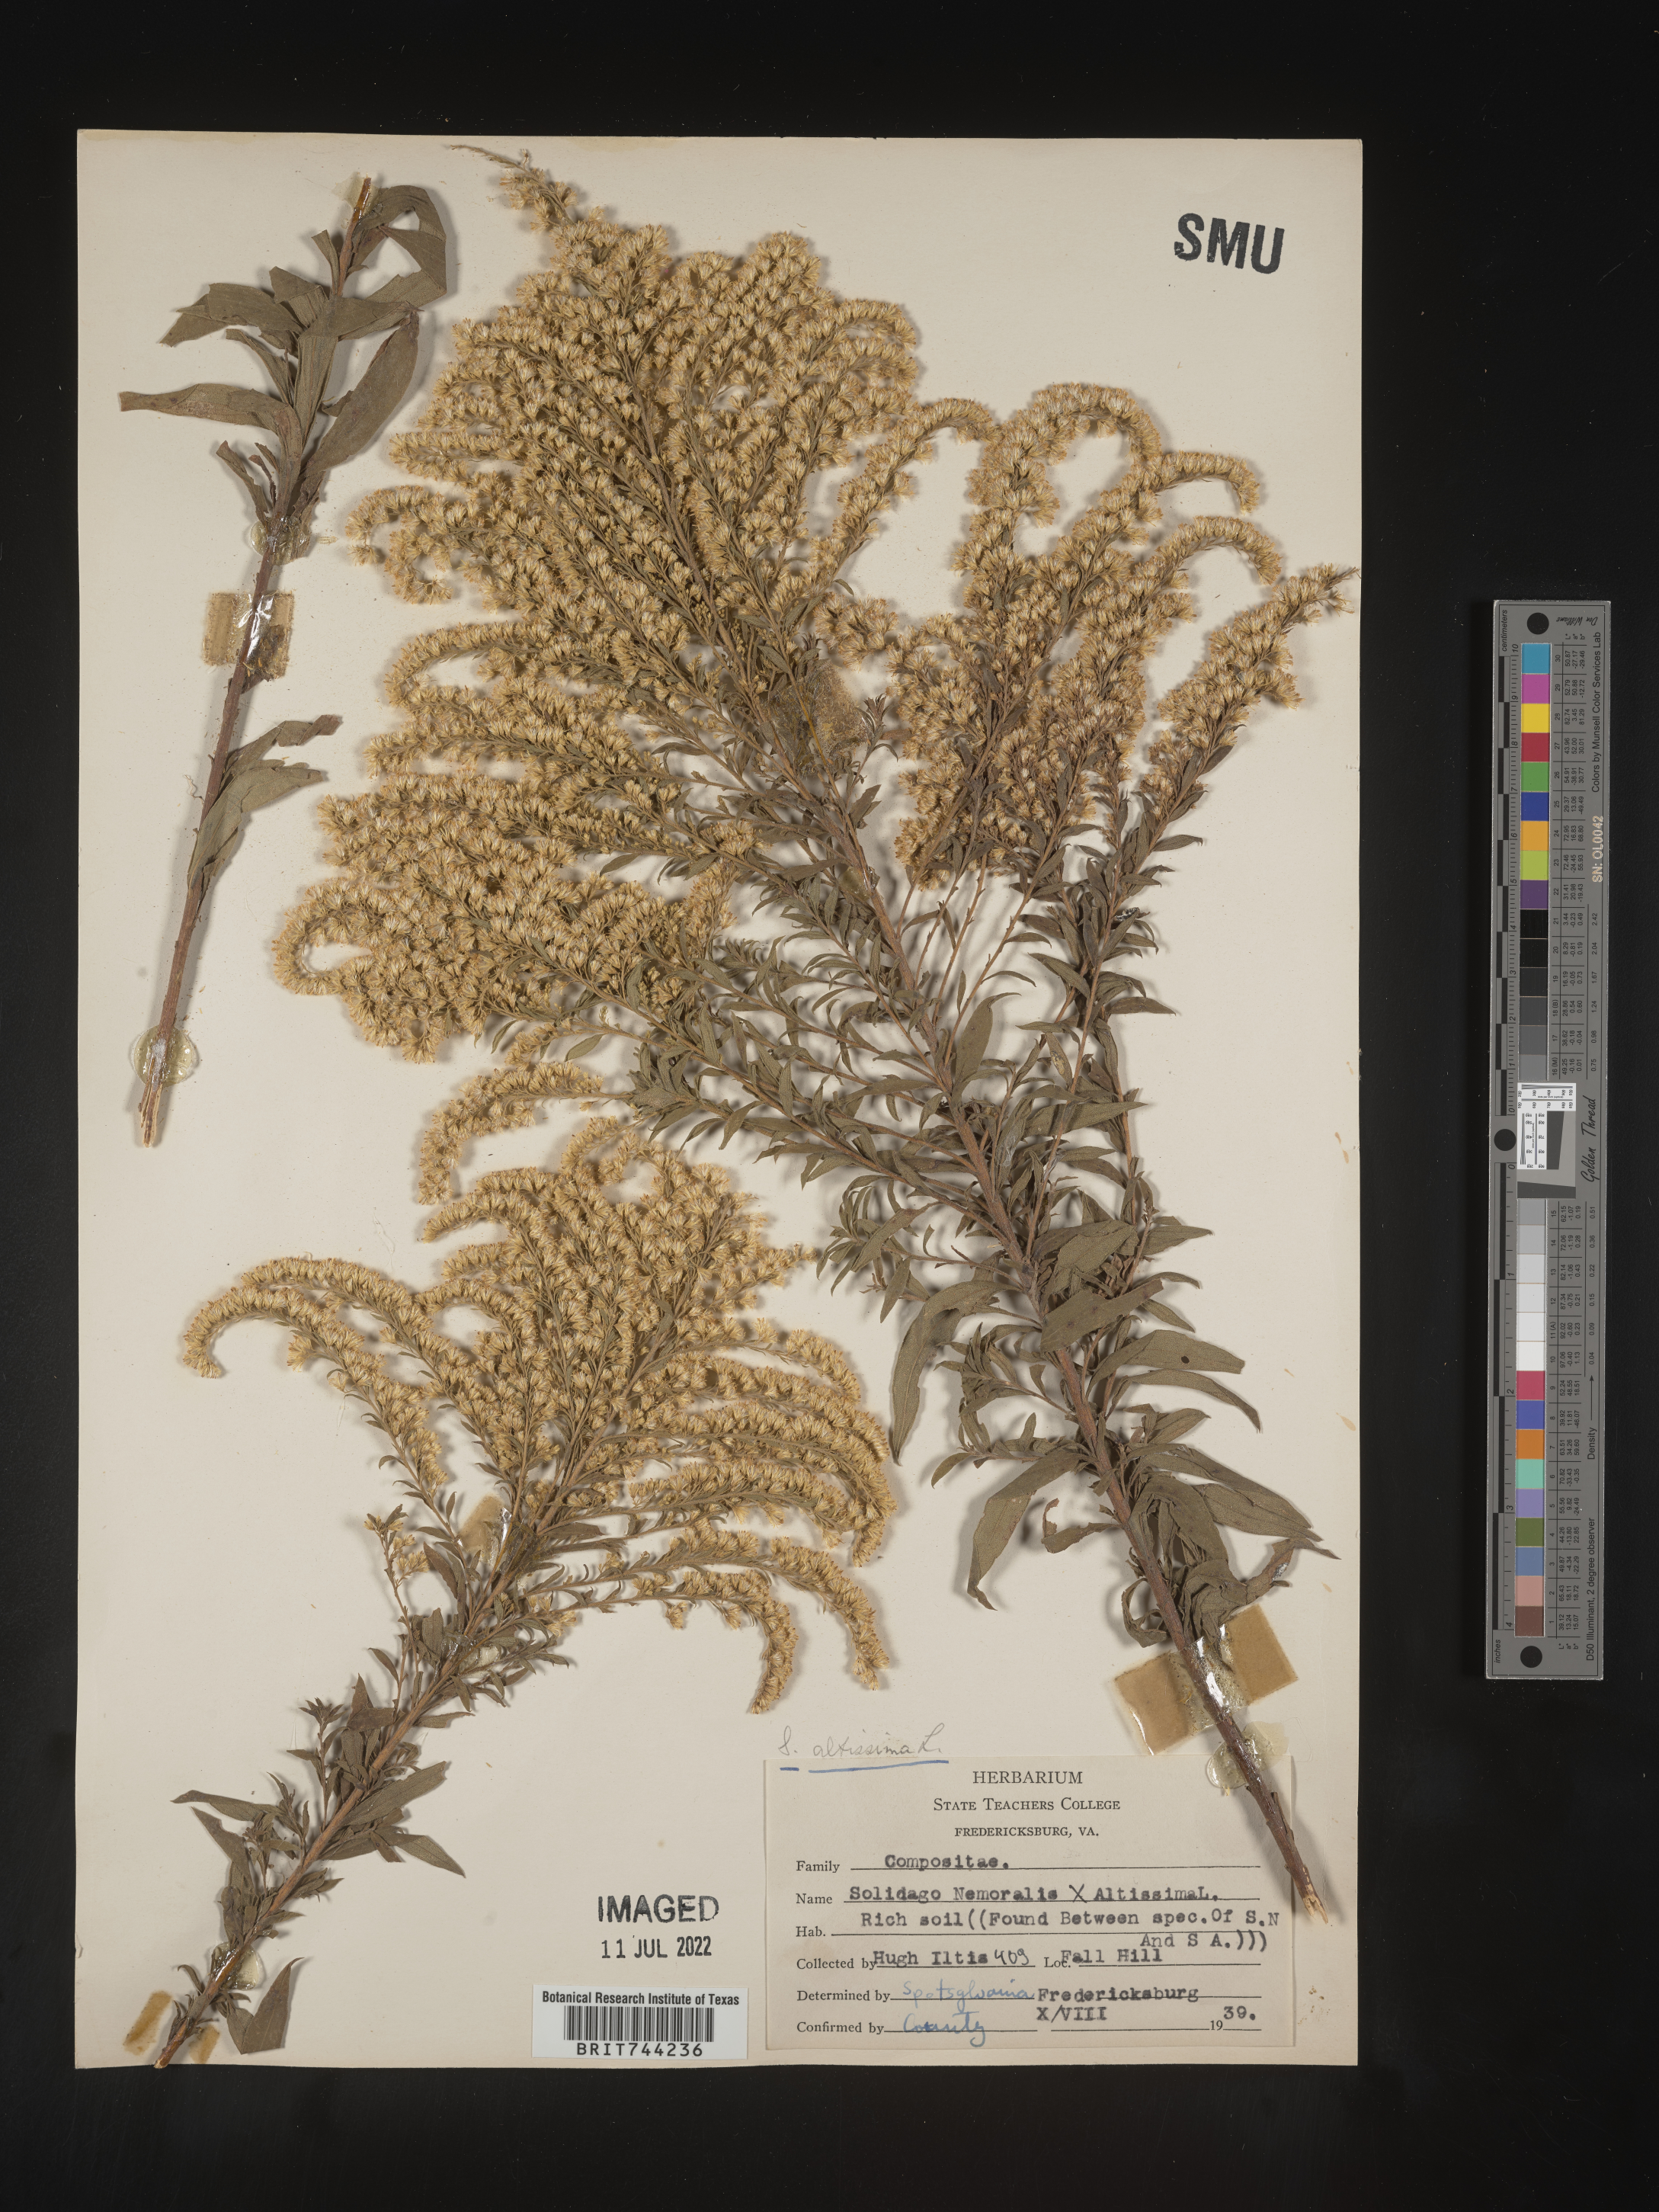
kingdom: Plantae
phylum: Tracheophyta
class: Magnoliopsida
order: Asterales
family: Asteraceae
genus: Solidago
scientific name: Solidago altissima
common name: Late goldenrod
